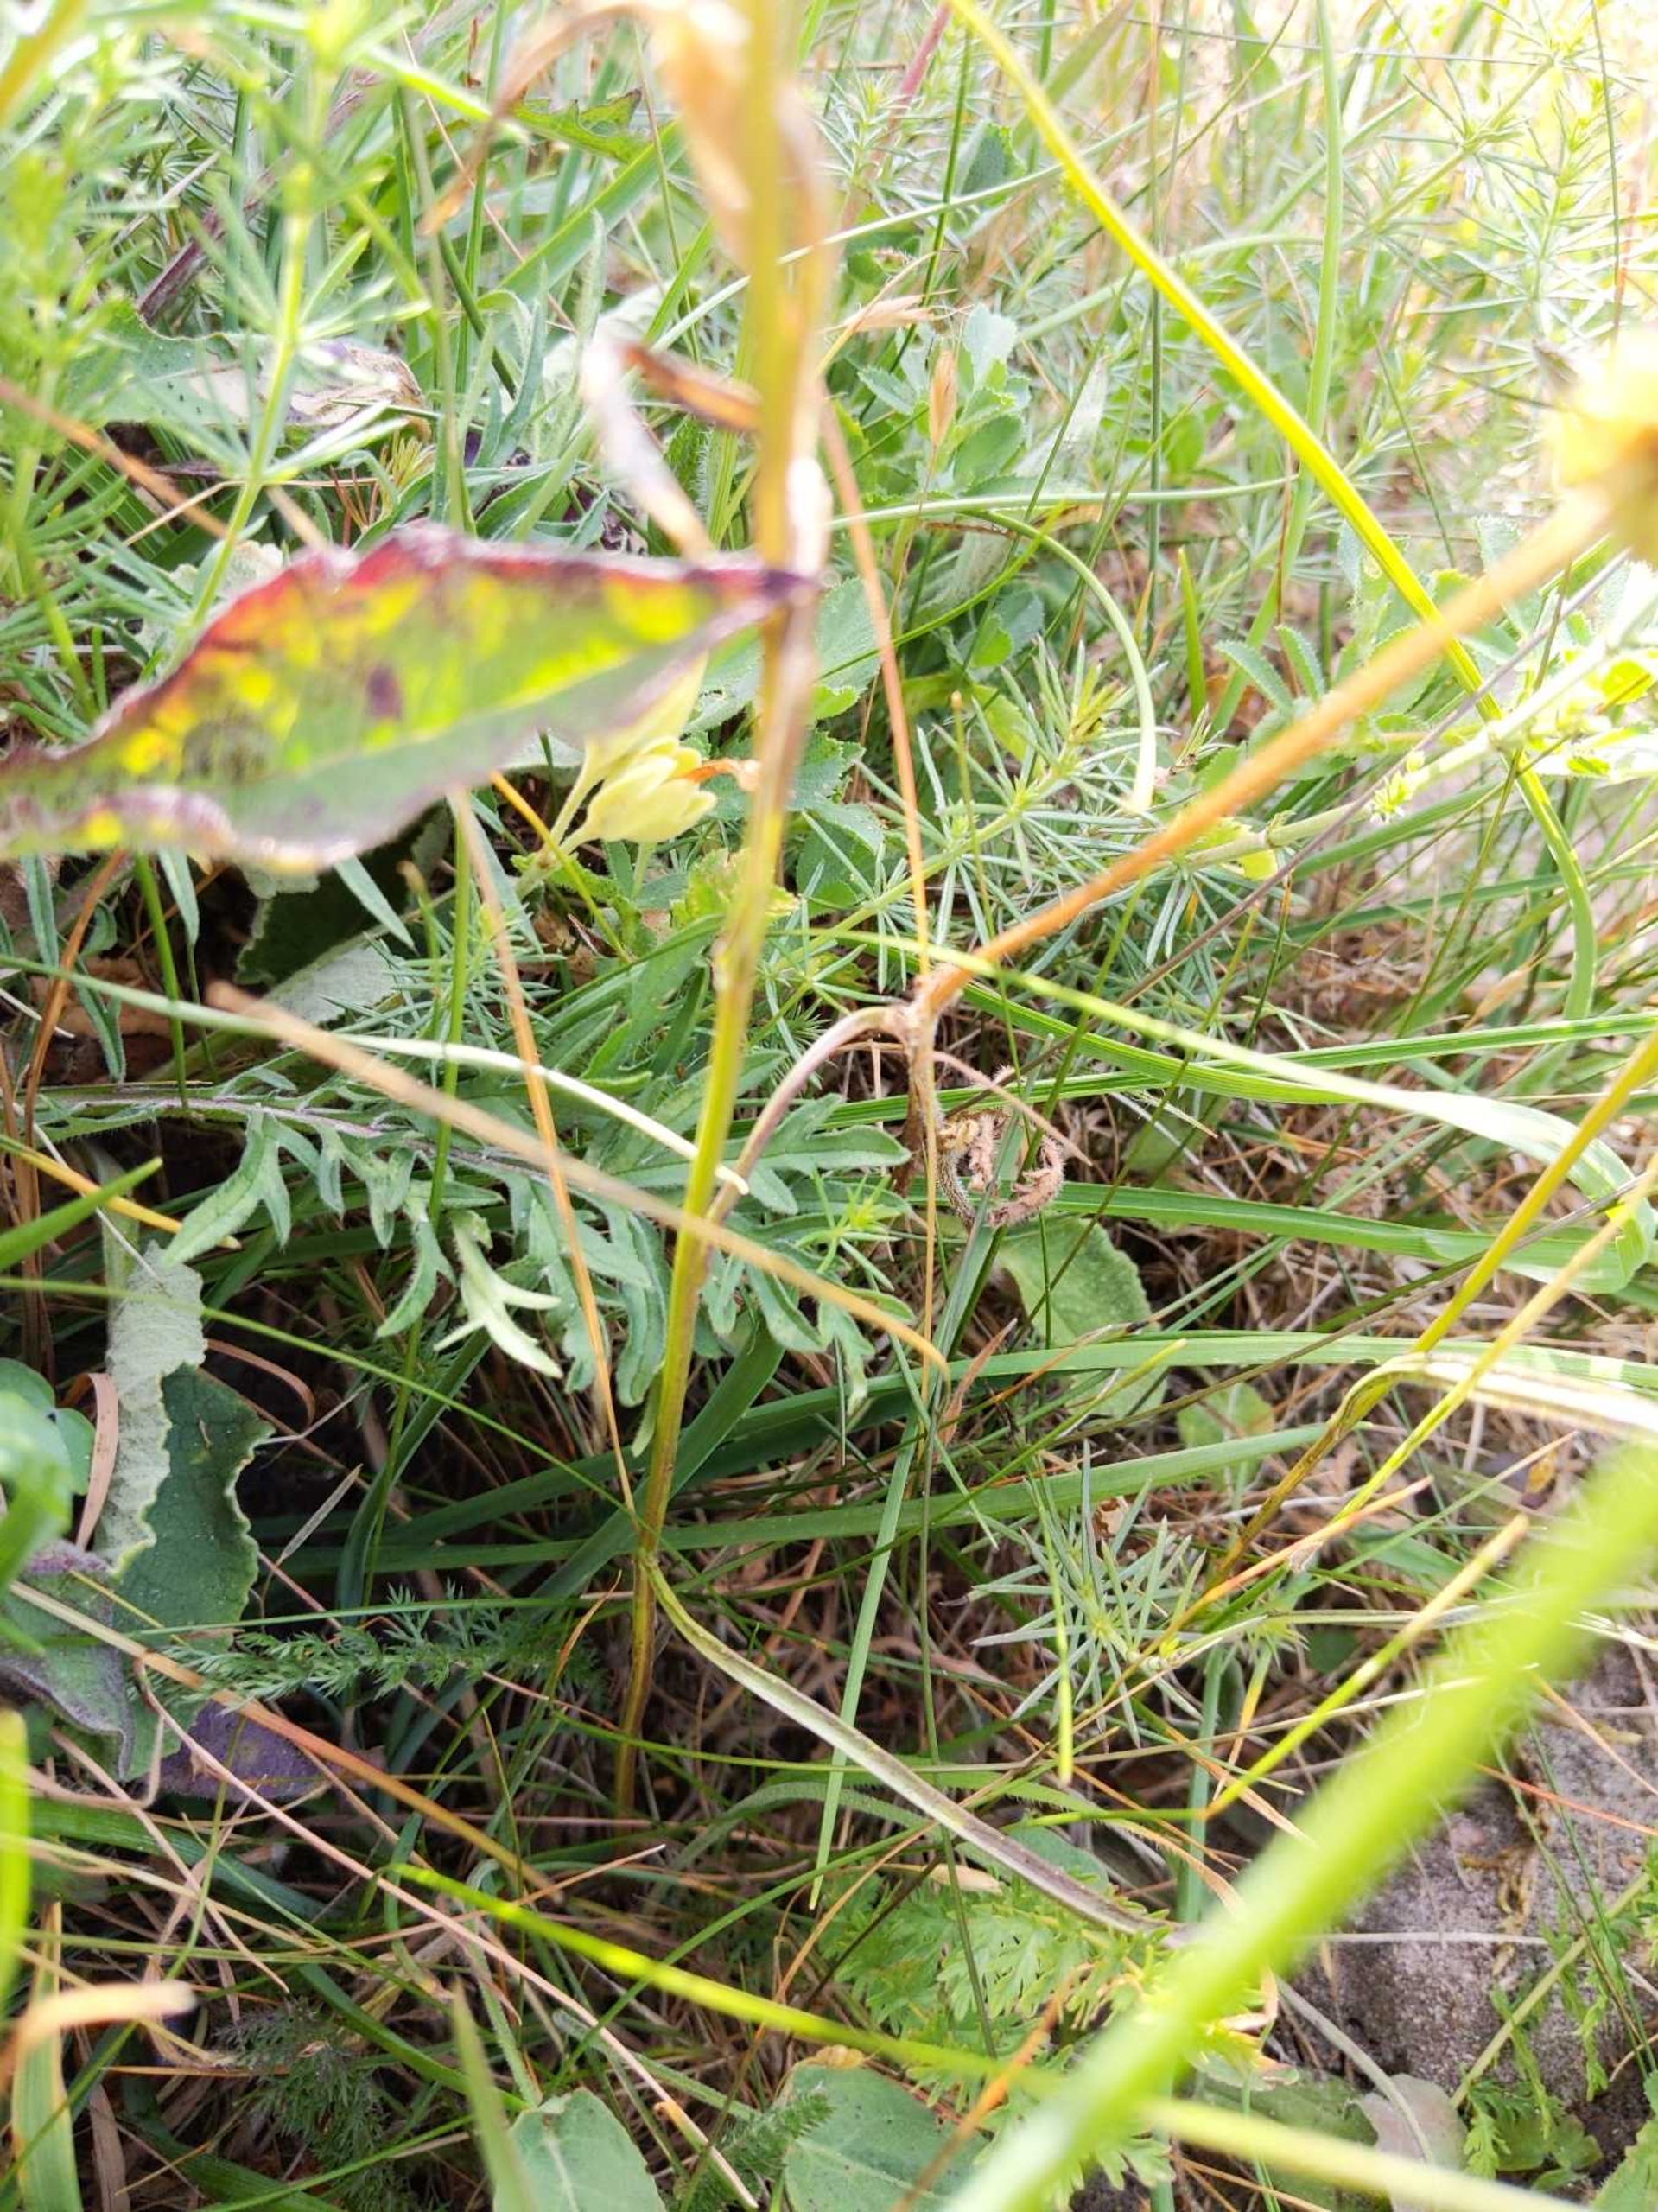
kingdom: Plantae
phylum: Tracheophyta
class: Magnoliopsida
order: Asterales
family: Campanulaceae
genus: Campanula
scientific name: Campanula persicifolia
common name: Smalbladet klokke
